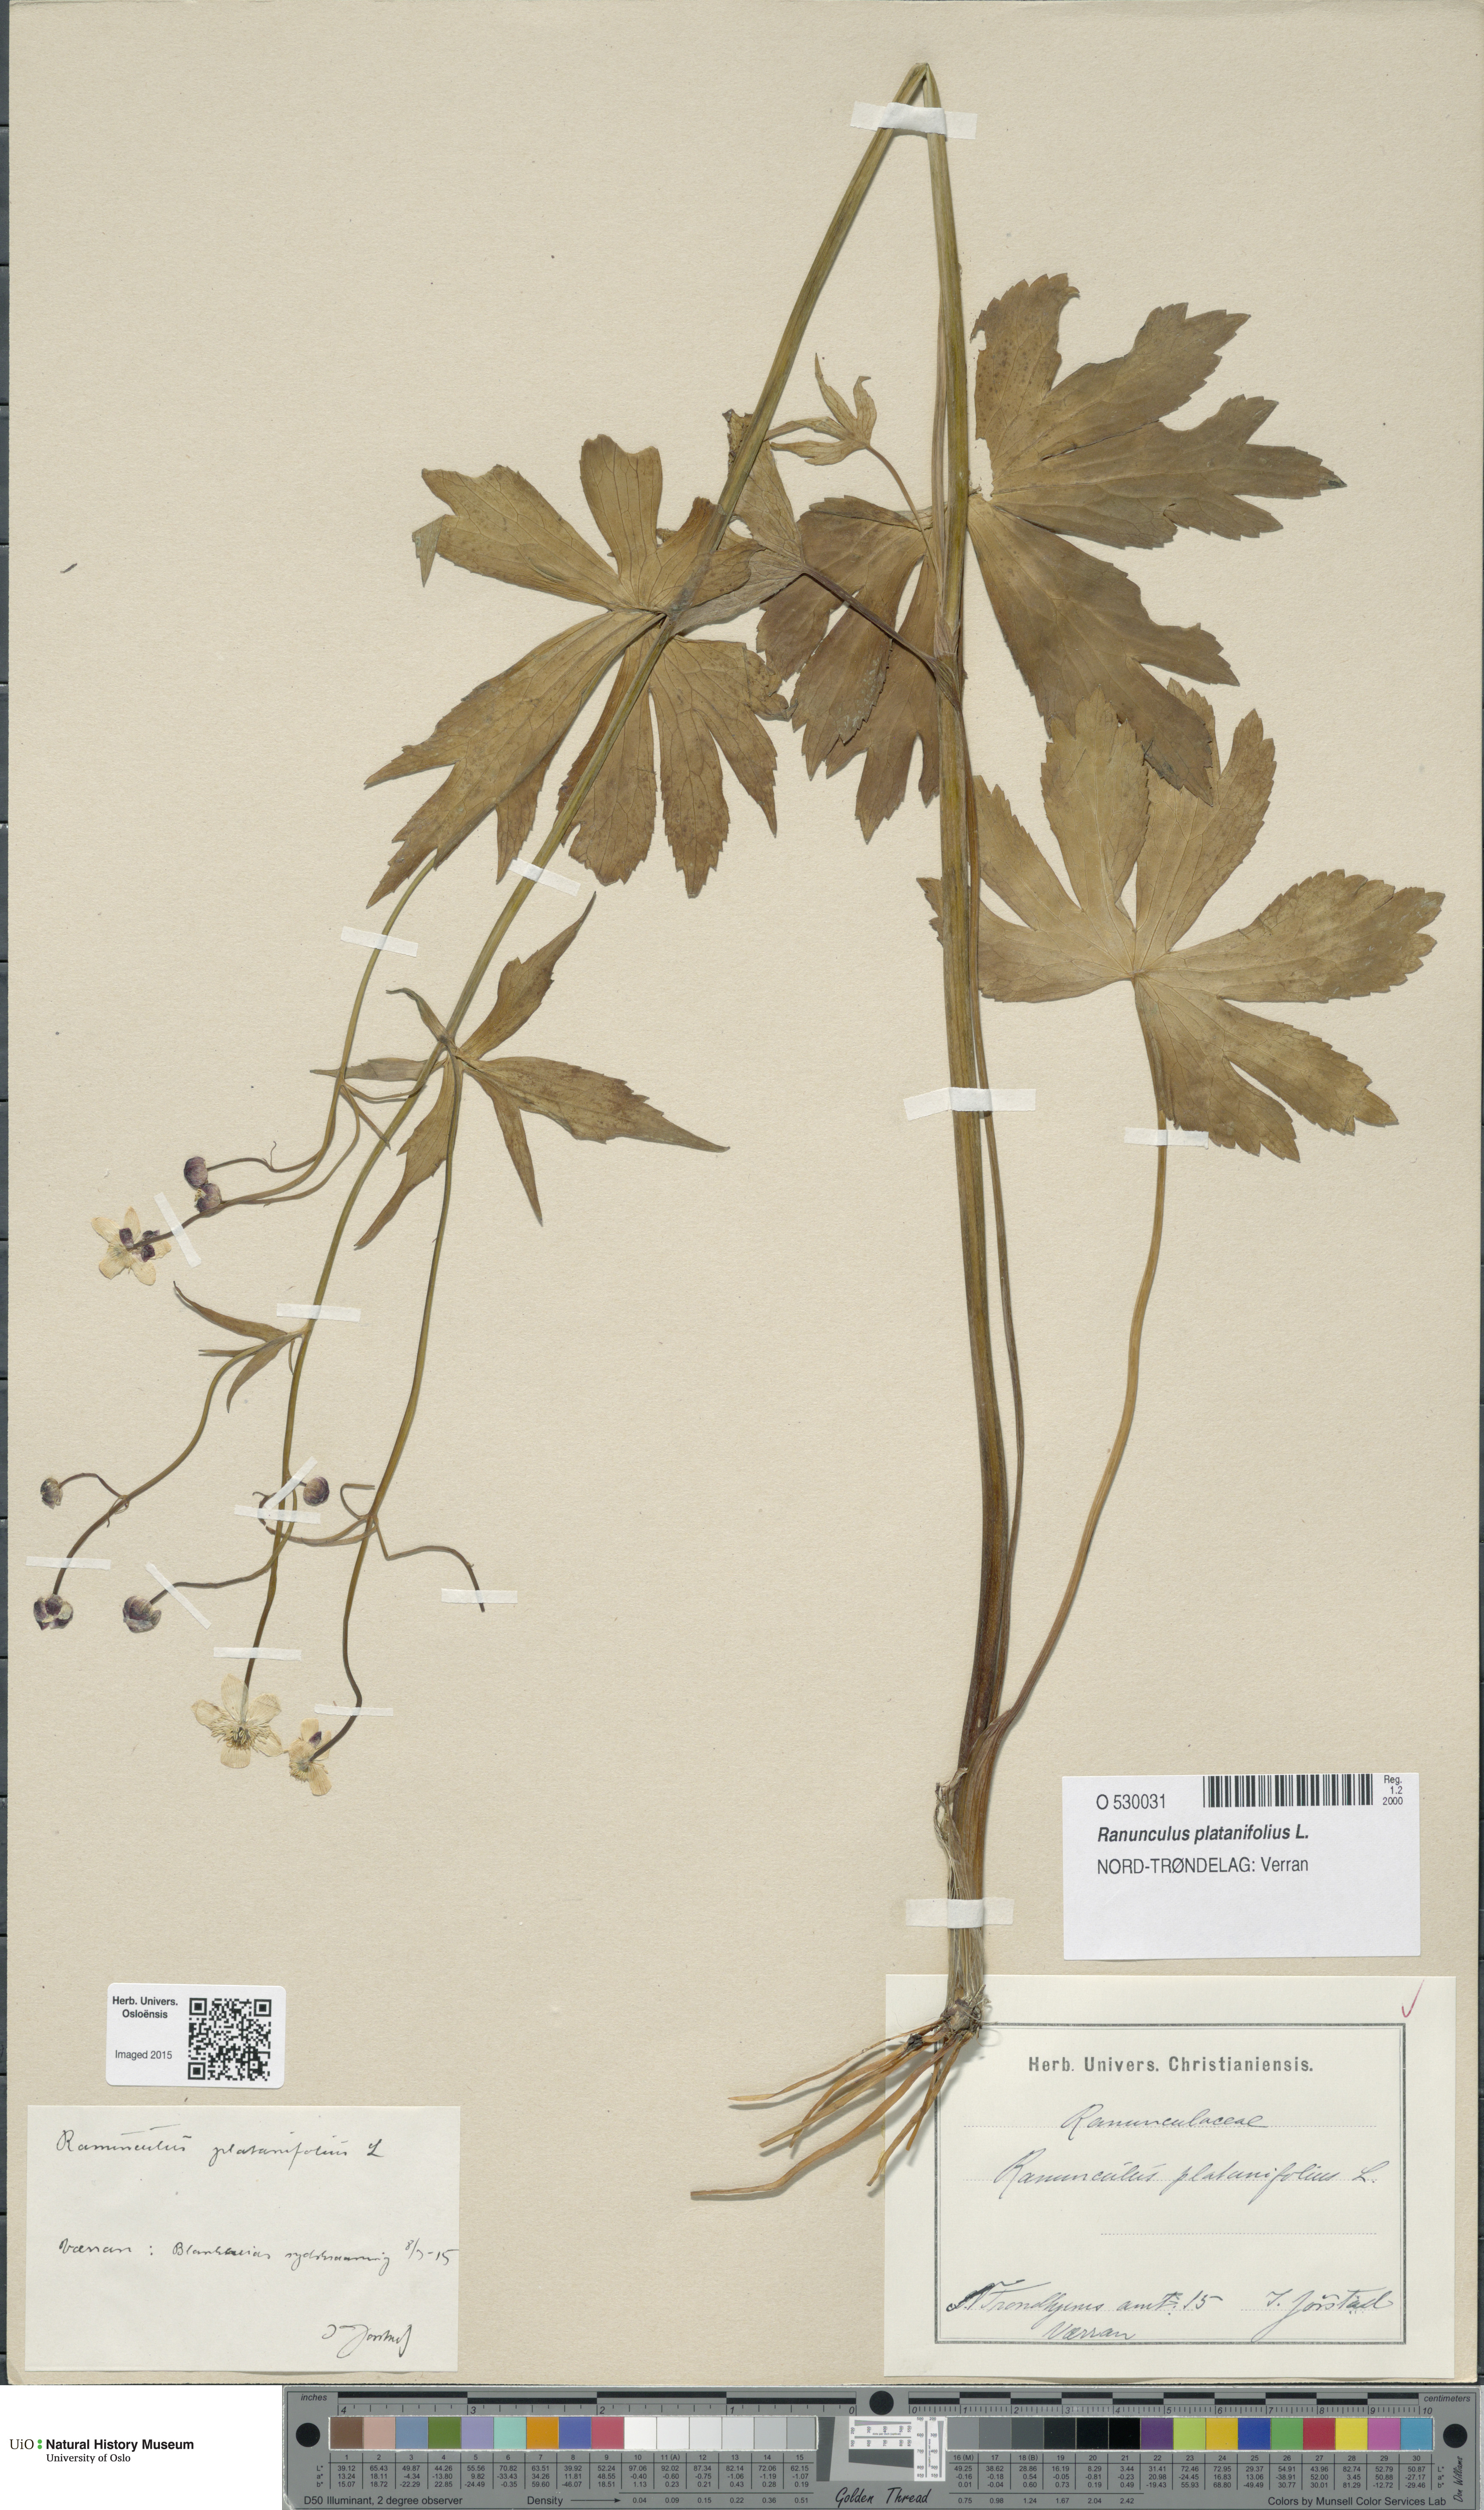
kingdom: Plantae
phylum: Tracheophyta
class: Magnoliopsida
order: Ranunculales
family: Ranunculaceae
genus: Ranunculus
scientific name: Ranunculus platanifolius
